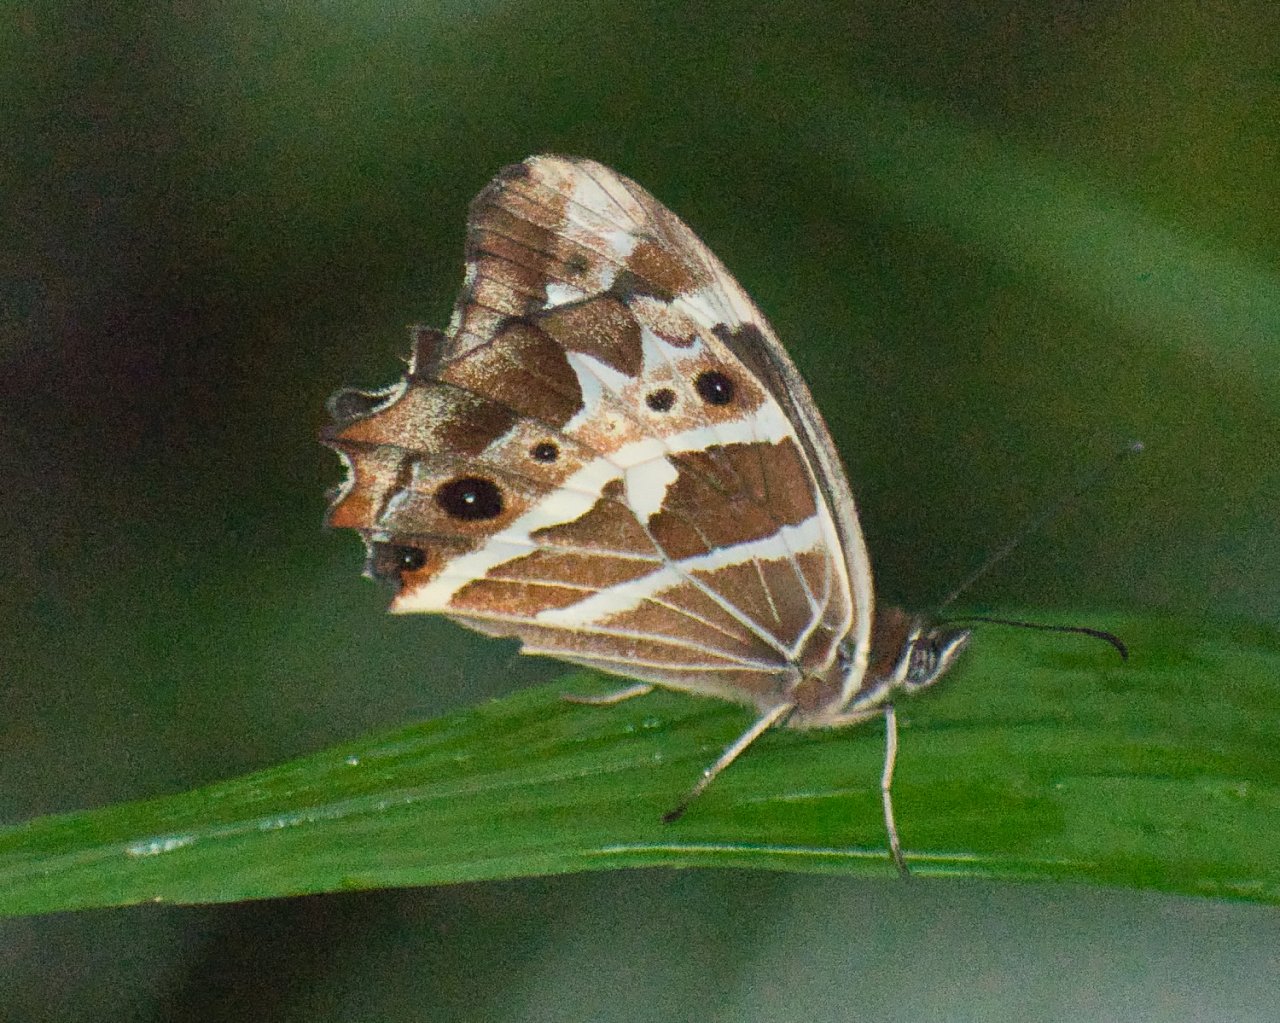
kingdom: Animalia
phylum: Arthropoda
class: Insecta
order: Lepidoptera
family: Nymphalidae
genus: Oxeoschistus
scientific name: Oxeoschistus tauropolis
